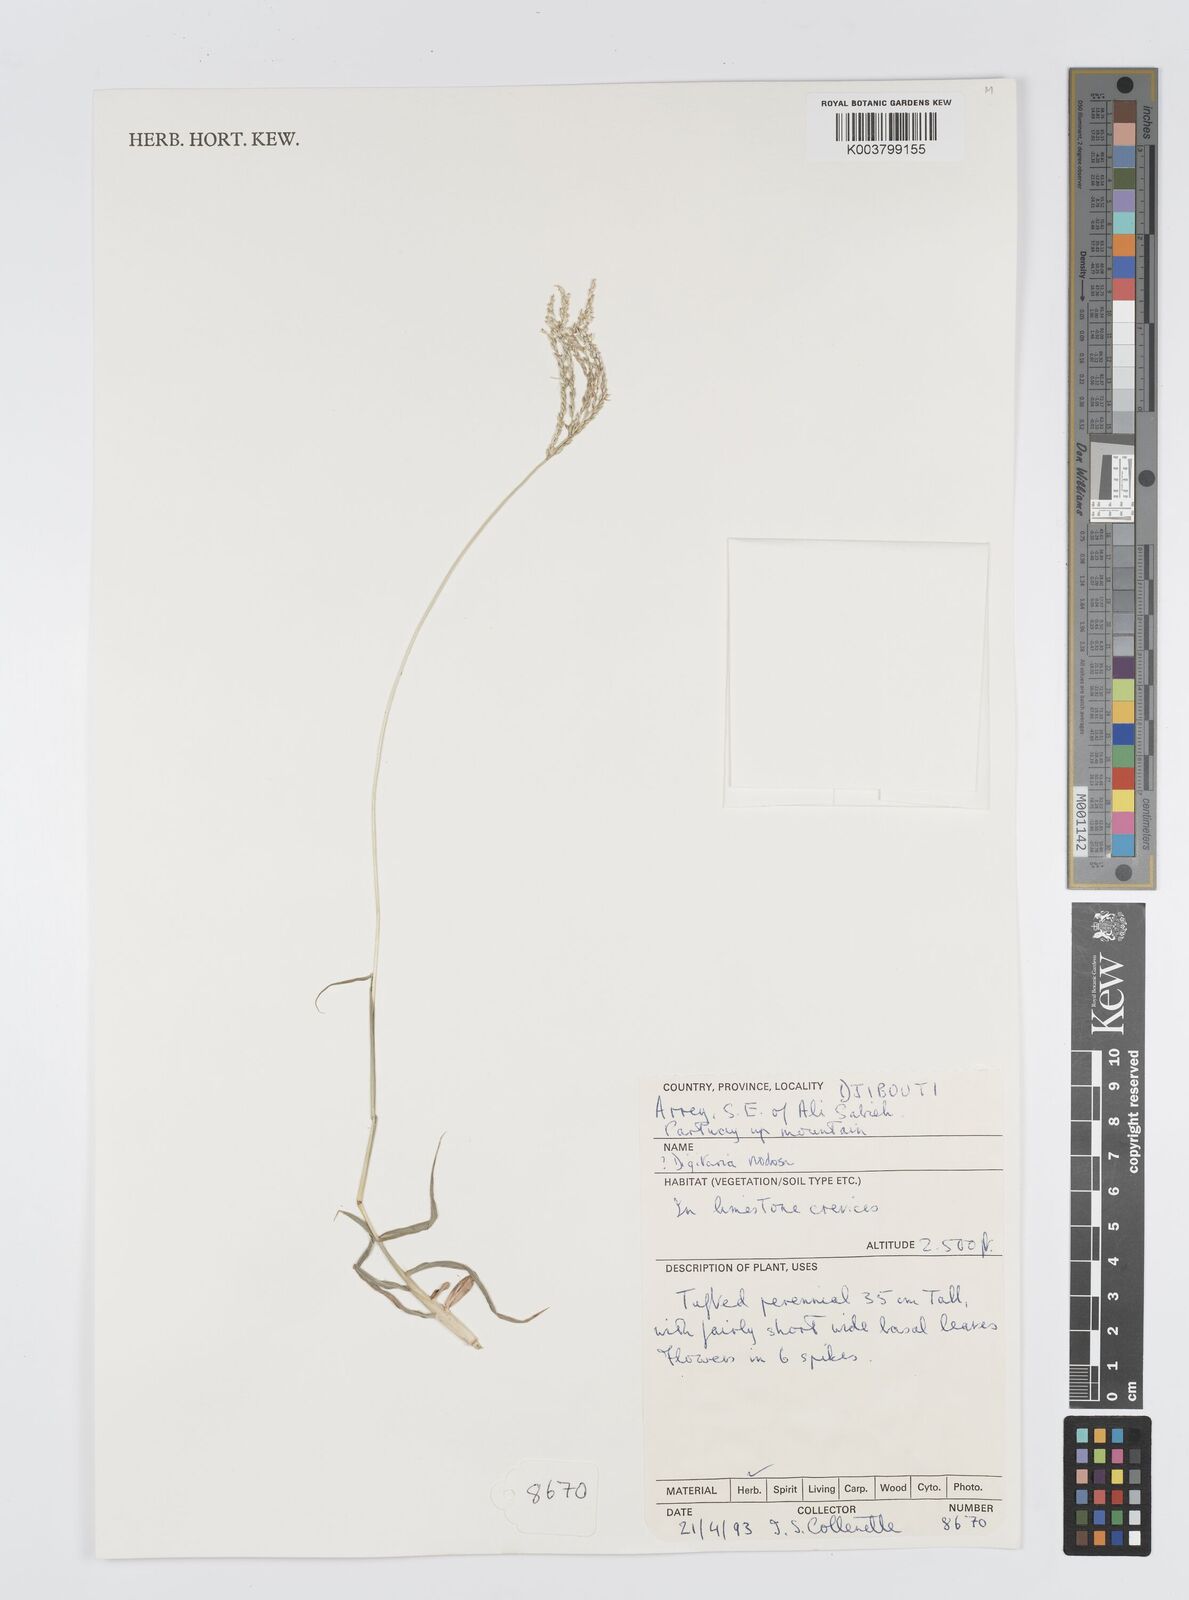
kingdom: Plantae
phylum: Tracheophyta
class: Liliopsida
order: Poales
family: Poaceae
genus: Digitaria
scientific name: Digitaria nodosa
